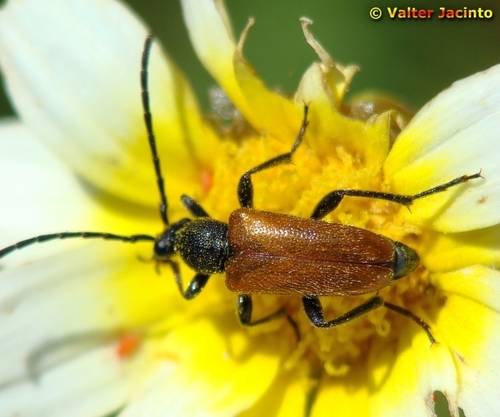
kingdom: Animalia
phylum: Arthropoda
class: Insecta
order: Coleoptera
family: Cerambycidae
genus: Pseudovadonia
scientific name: Pseudovadonia livida
